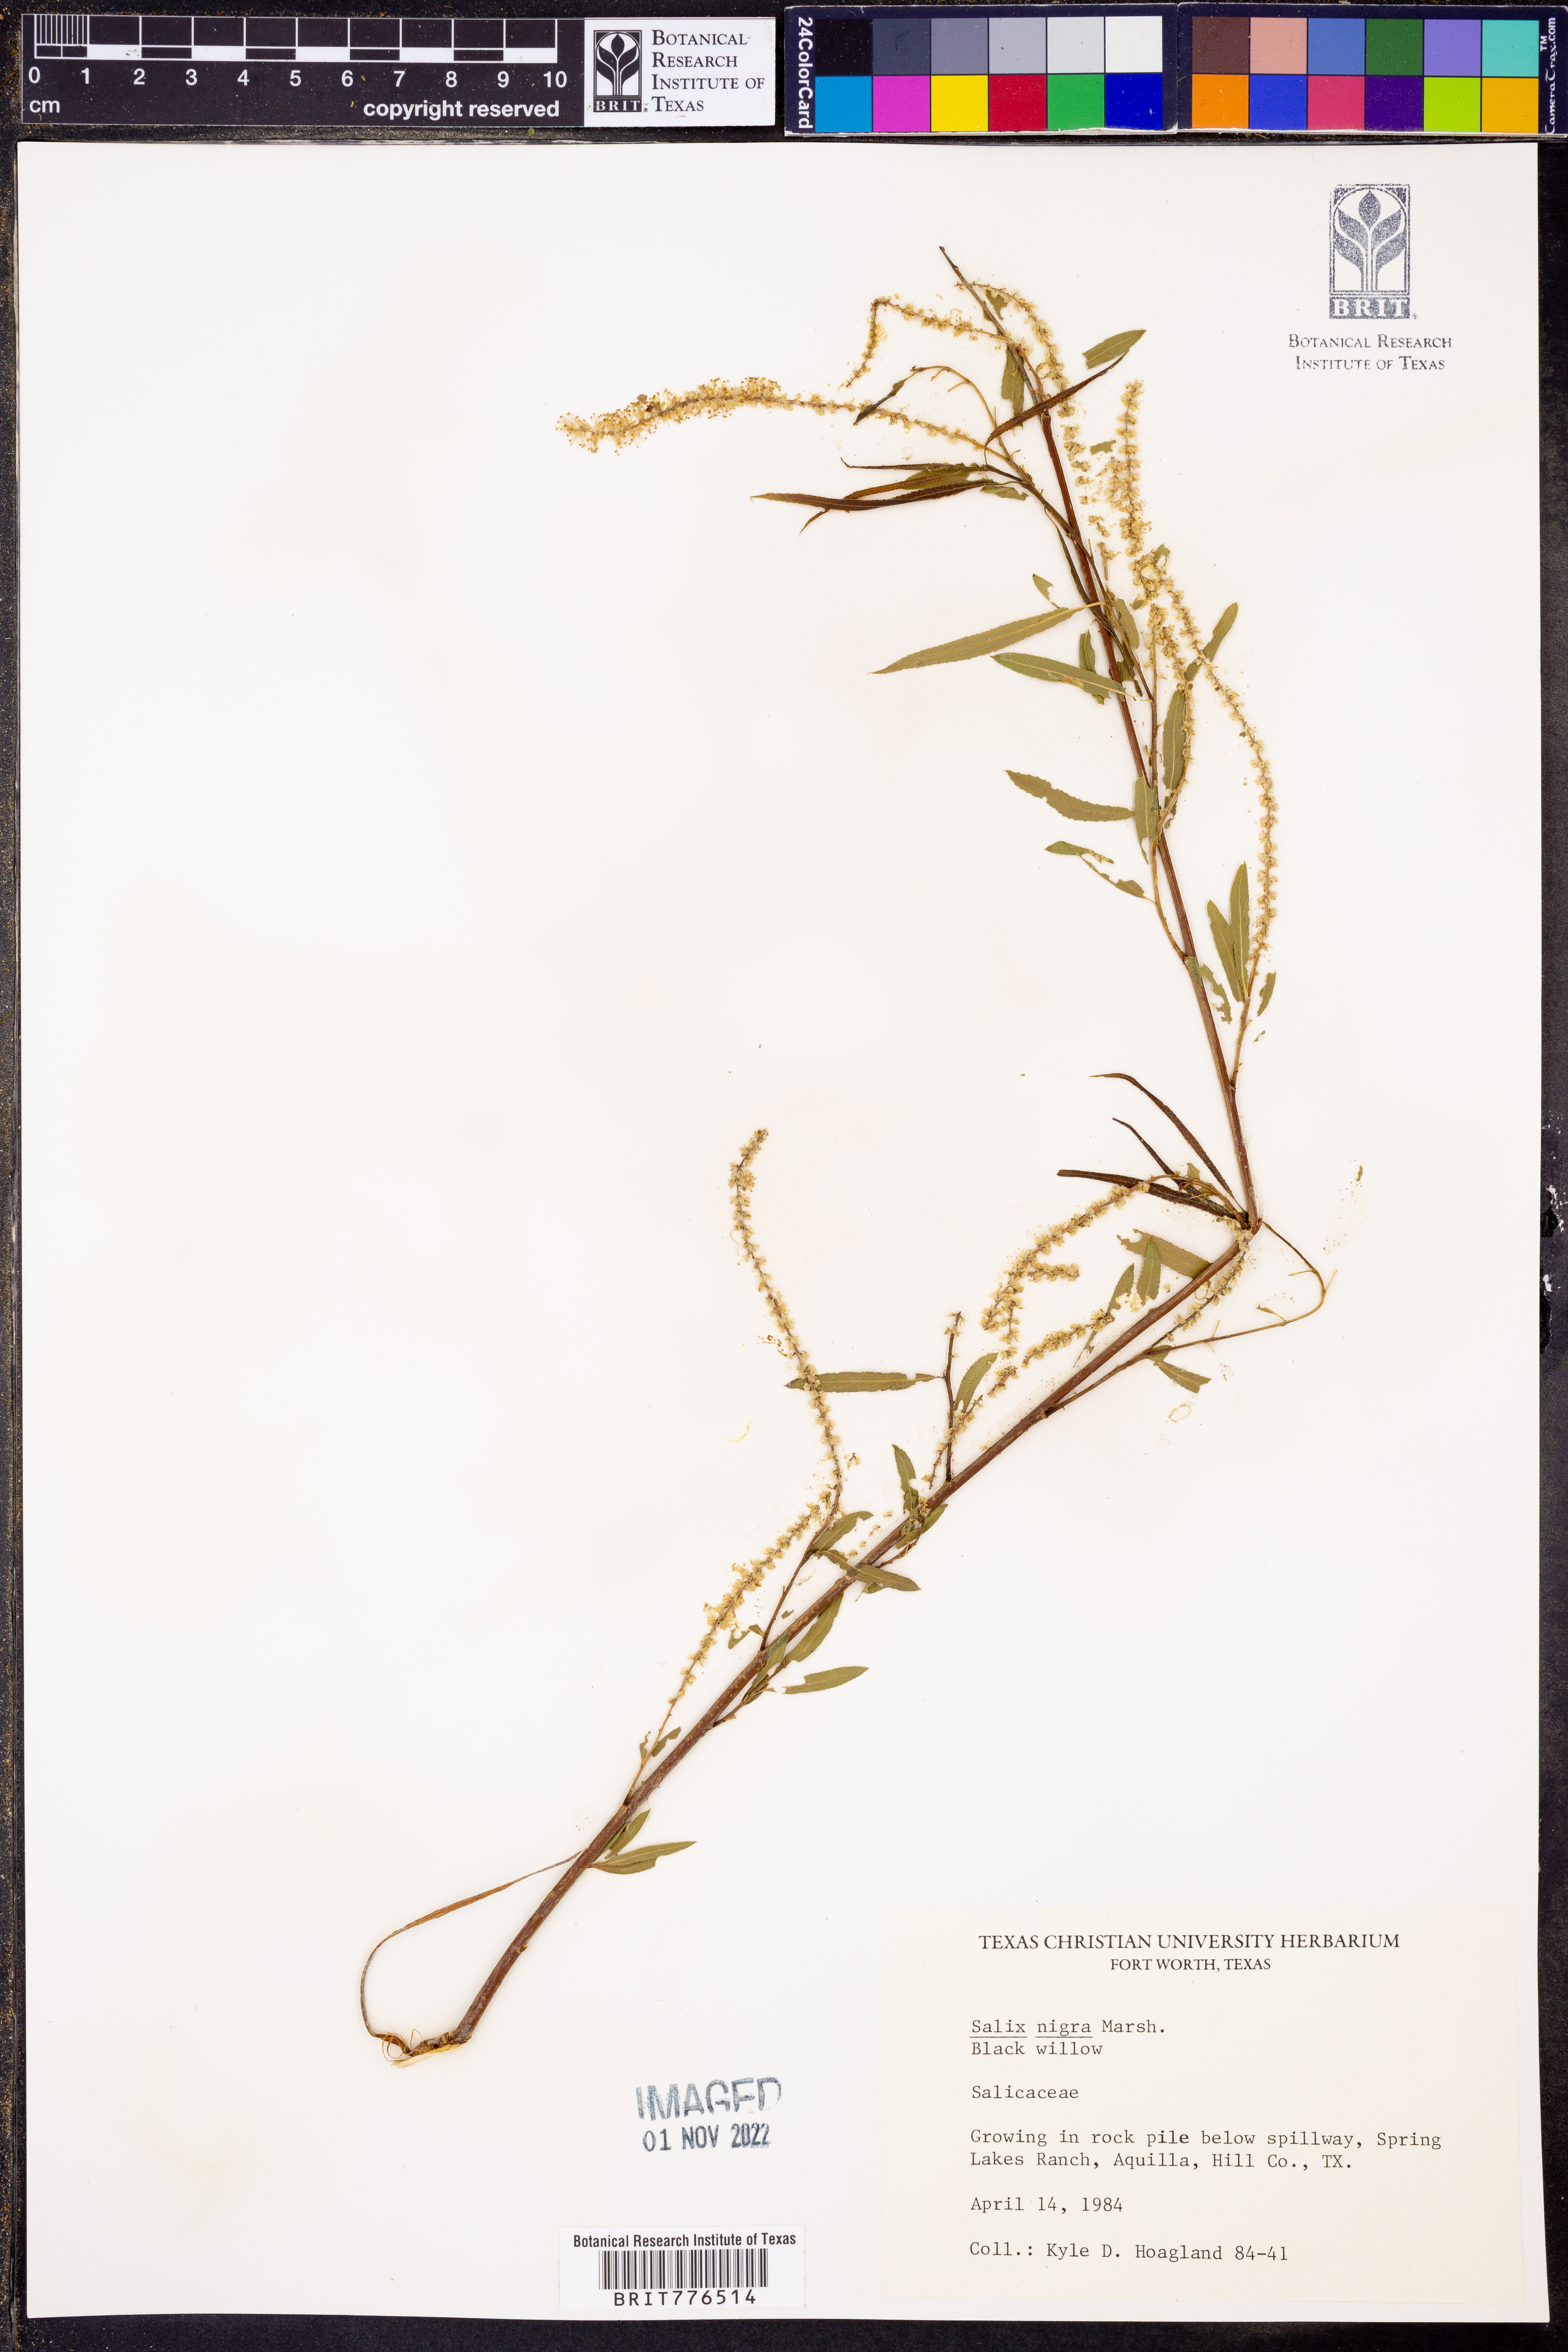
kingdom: Plantae
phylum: Tracheophyta
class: Magnoliopsida
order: Malpighiales
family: Salicaceae
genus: Salix
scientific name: Salix nigra
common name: Black willow
